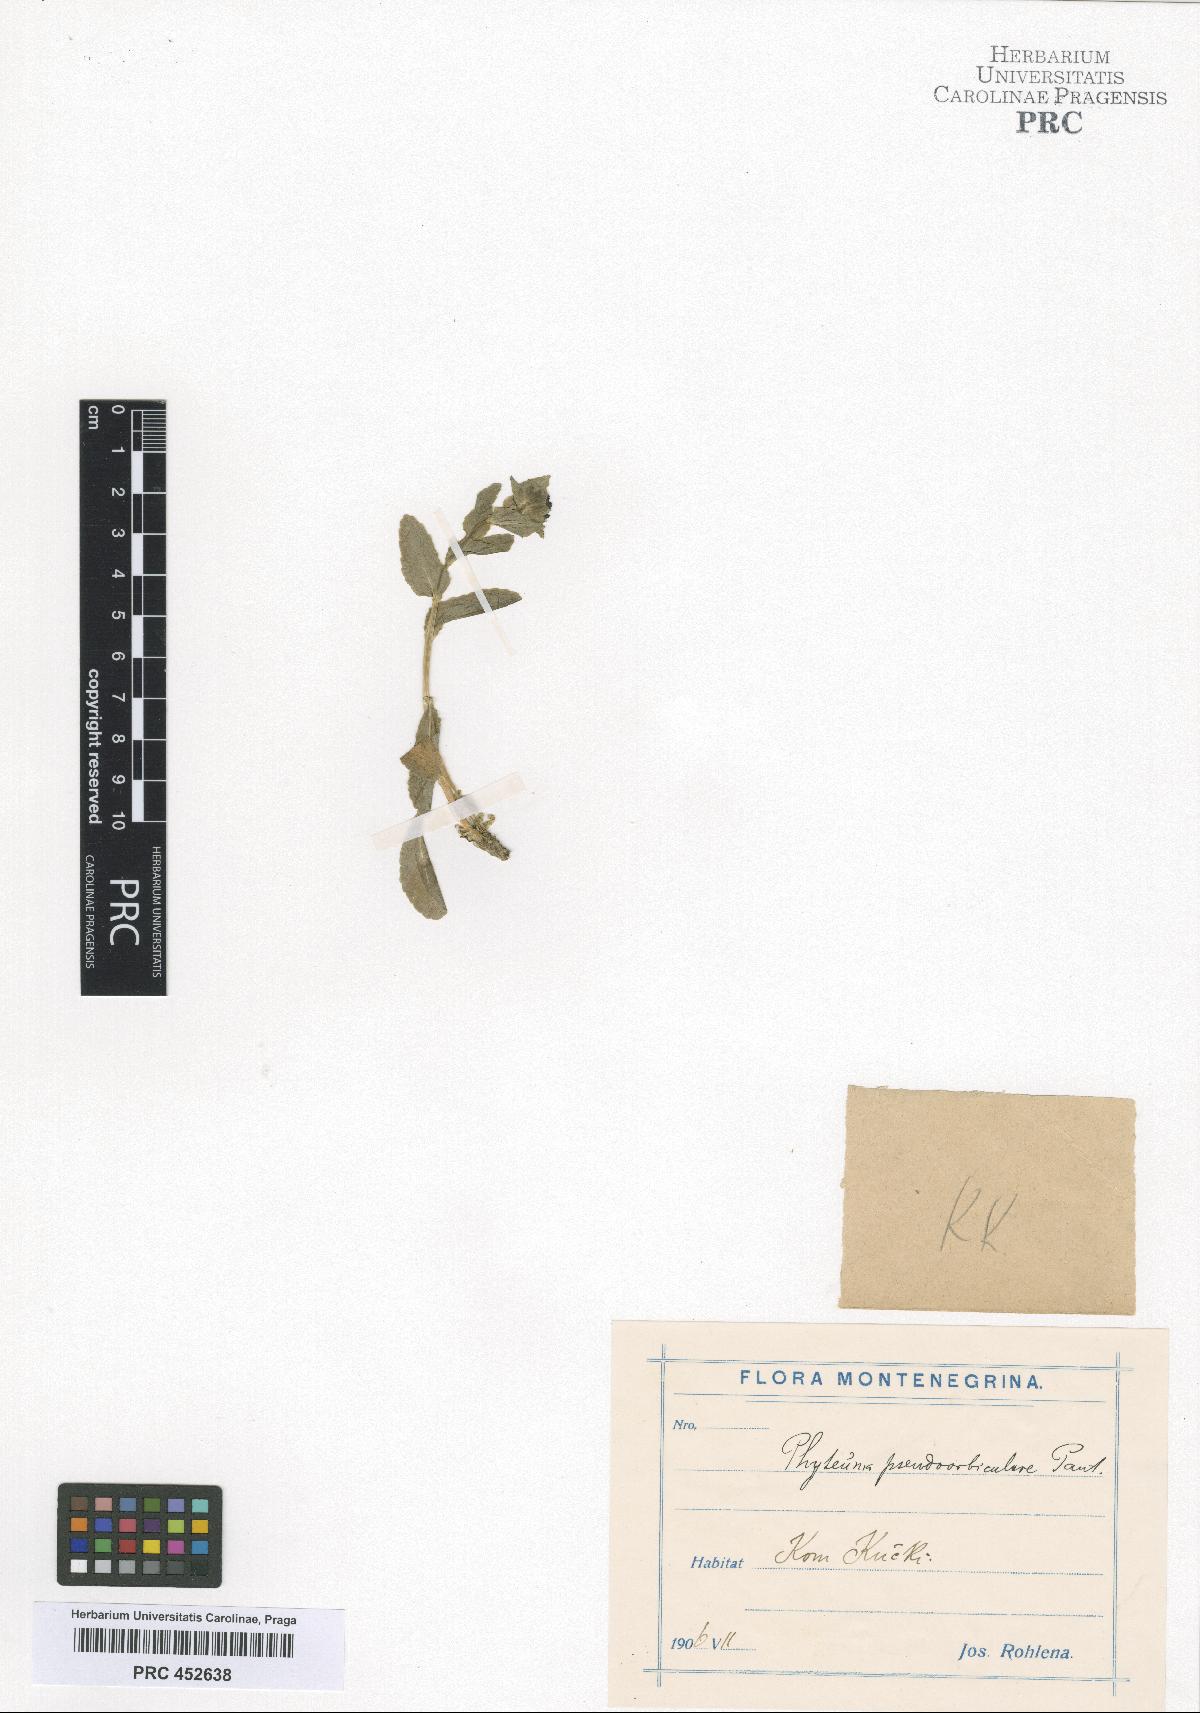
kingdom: Plantae
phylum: Tracheophyta
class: Magnoliopsida
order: Asterales
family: Campanulaceae
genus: Phyteuma
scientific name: Phyteuma orbiculare
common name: Round-headed rampion
